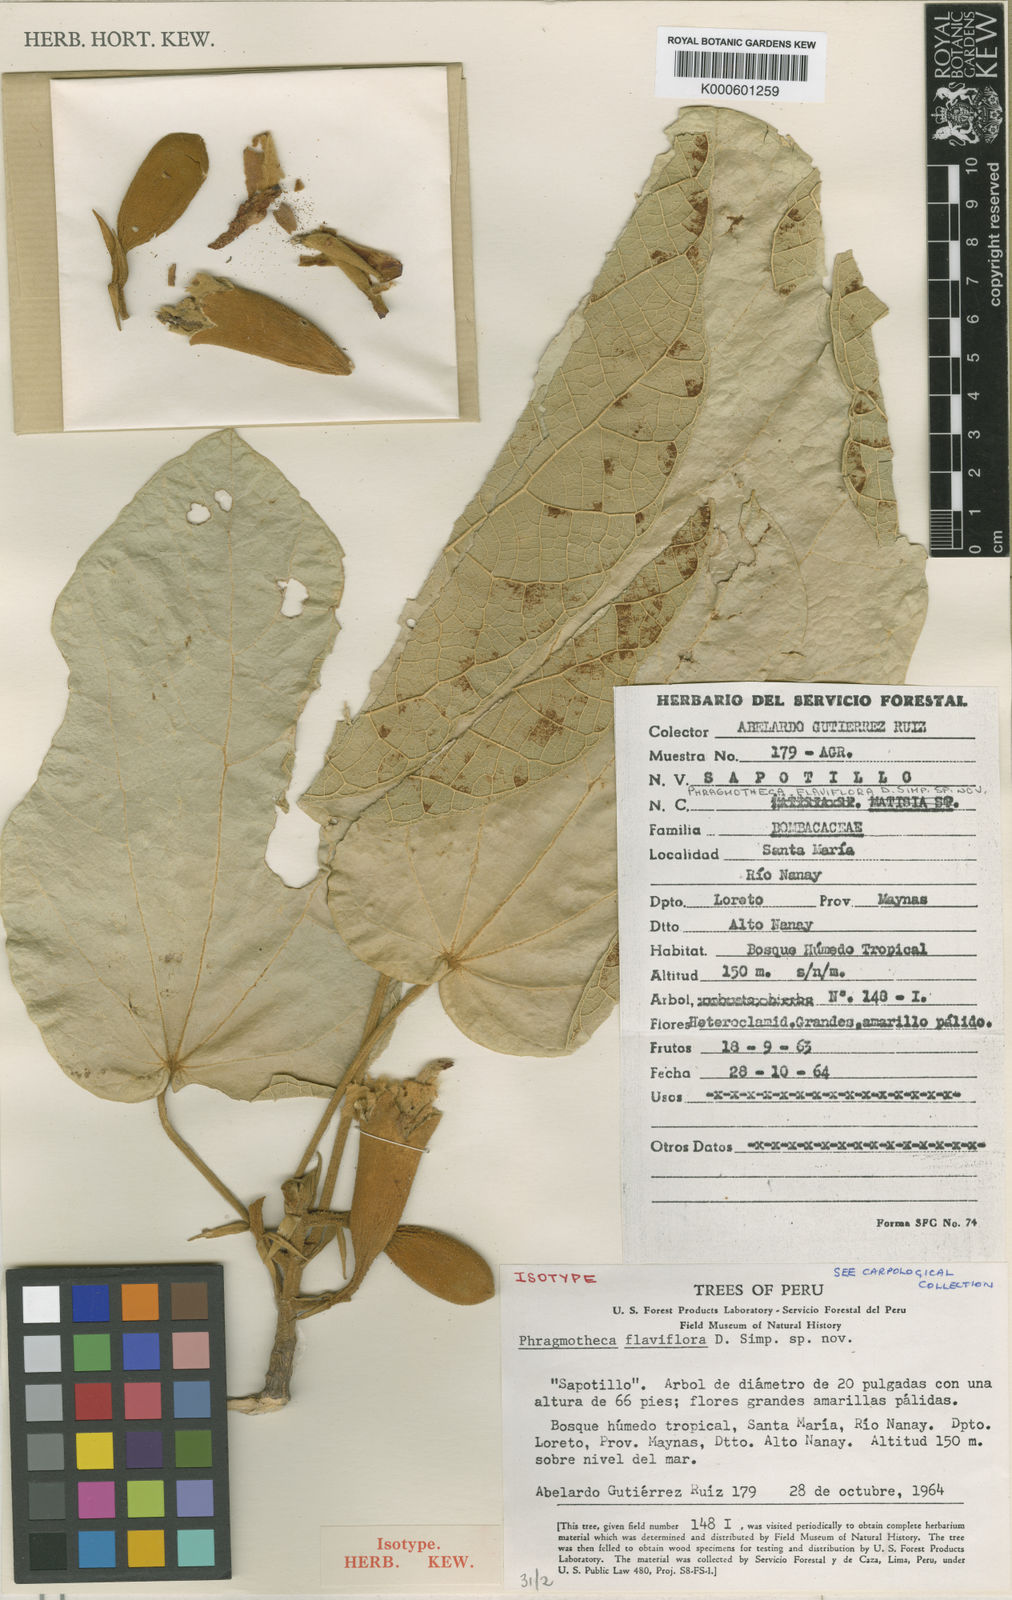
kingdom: Plantae
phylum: Tracheophyta
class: Magnoliopsida
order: Malvales
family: Malvaceae
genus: Phragmotheca
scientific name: Phragmotheca
